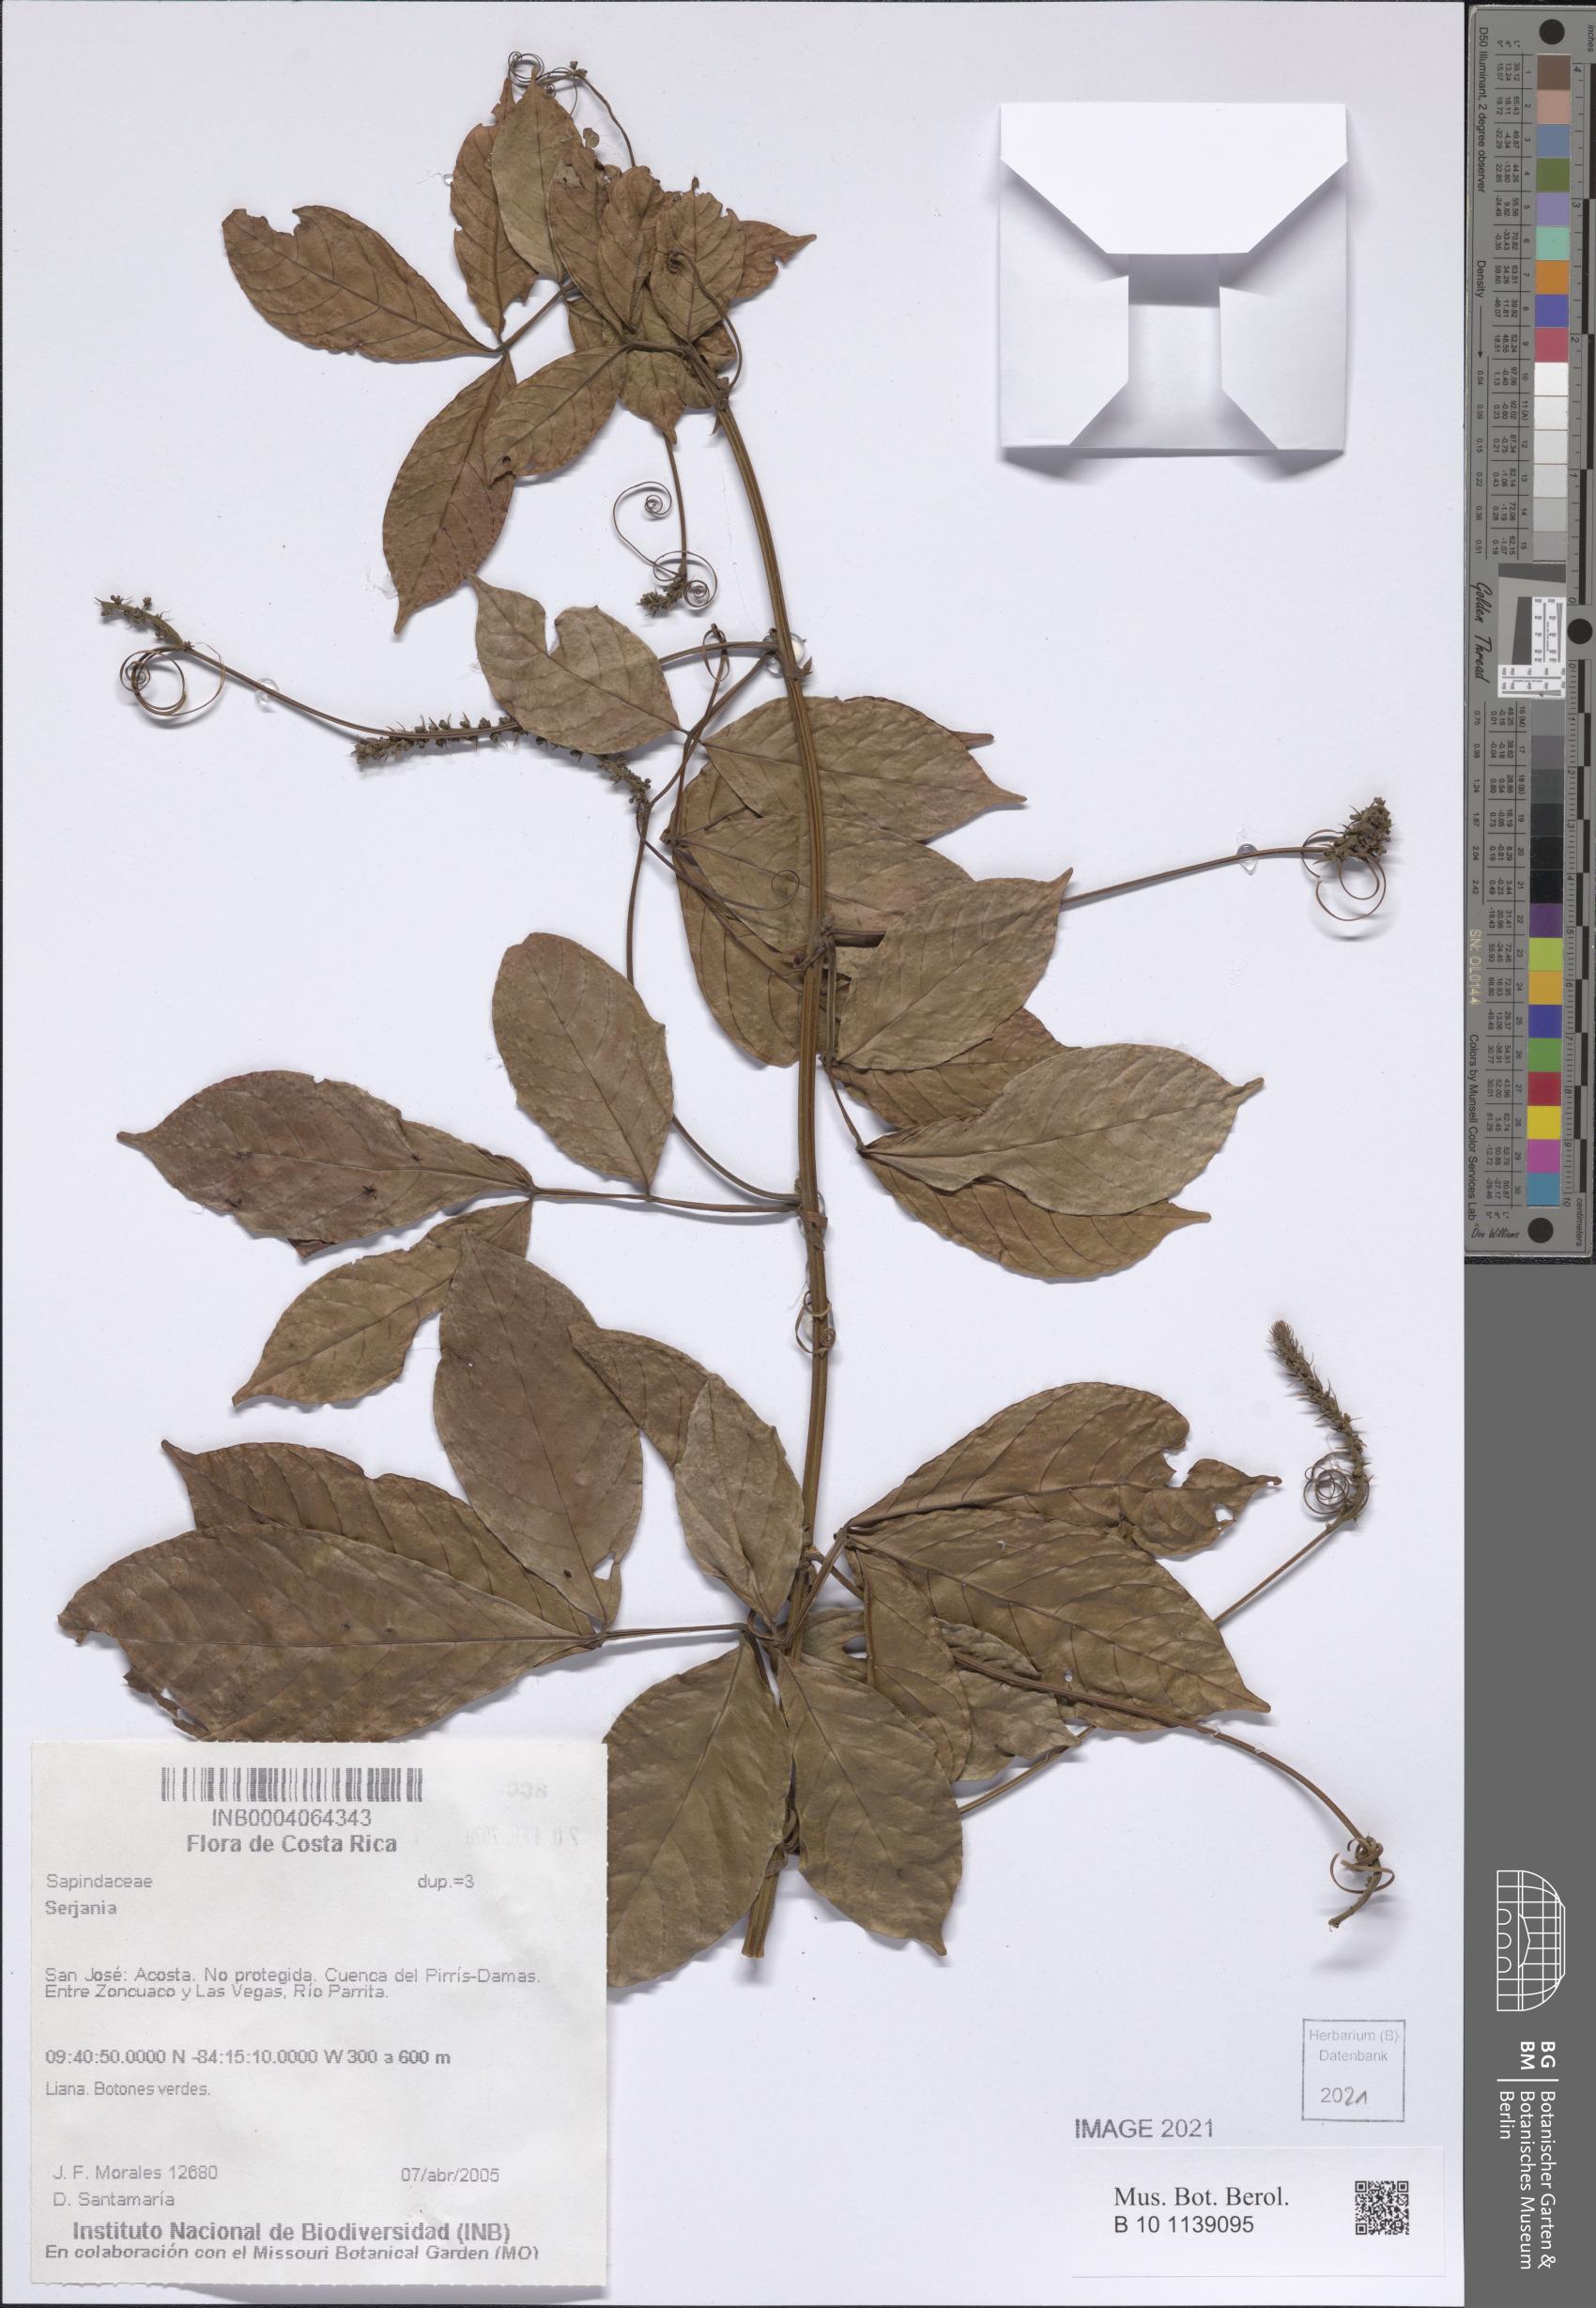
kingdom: Plantae
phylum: Tracheophyta
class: Magnoliopsida
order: Sapindales
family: Sapindaceae
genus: Serjania
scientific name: Serjania
